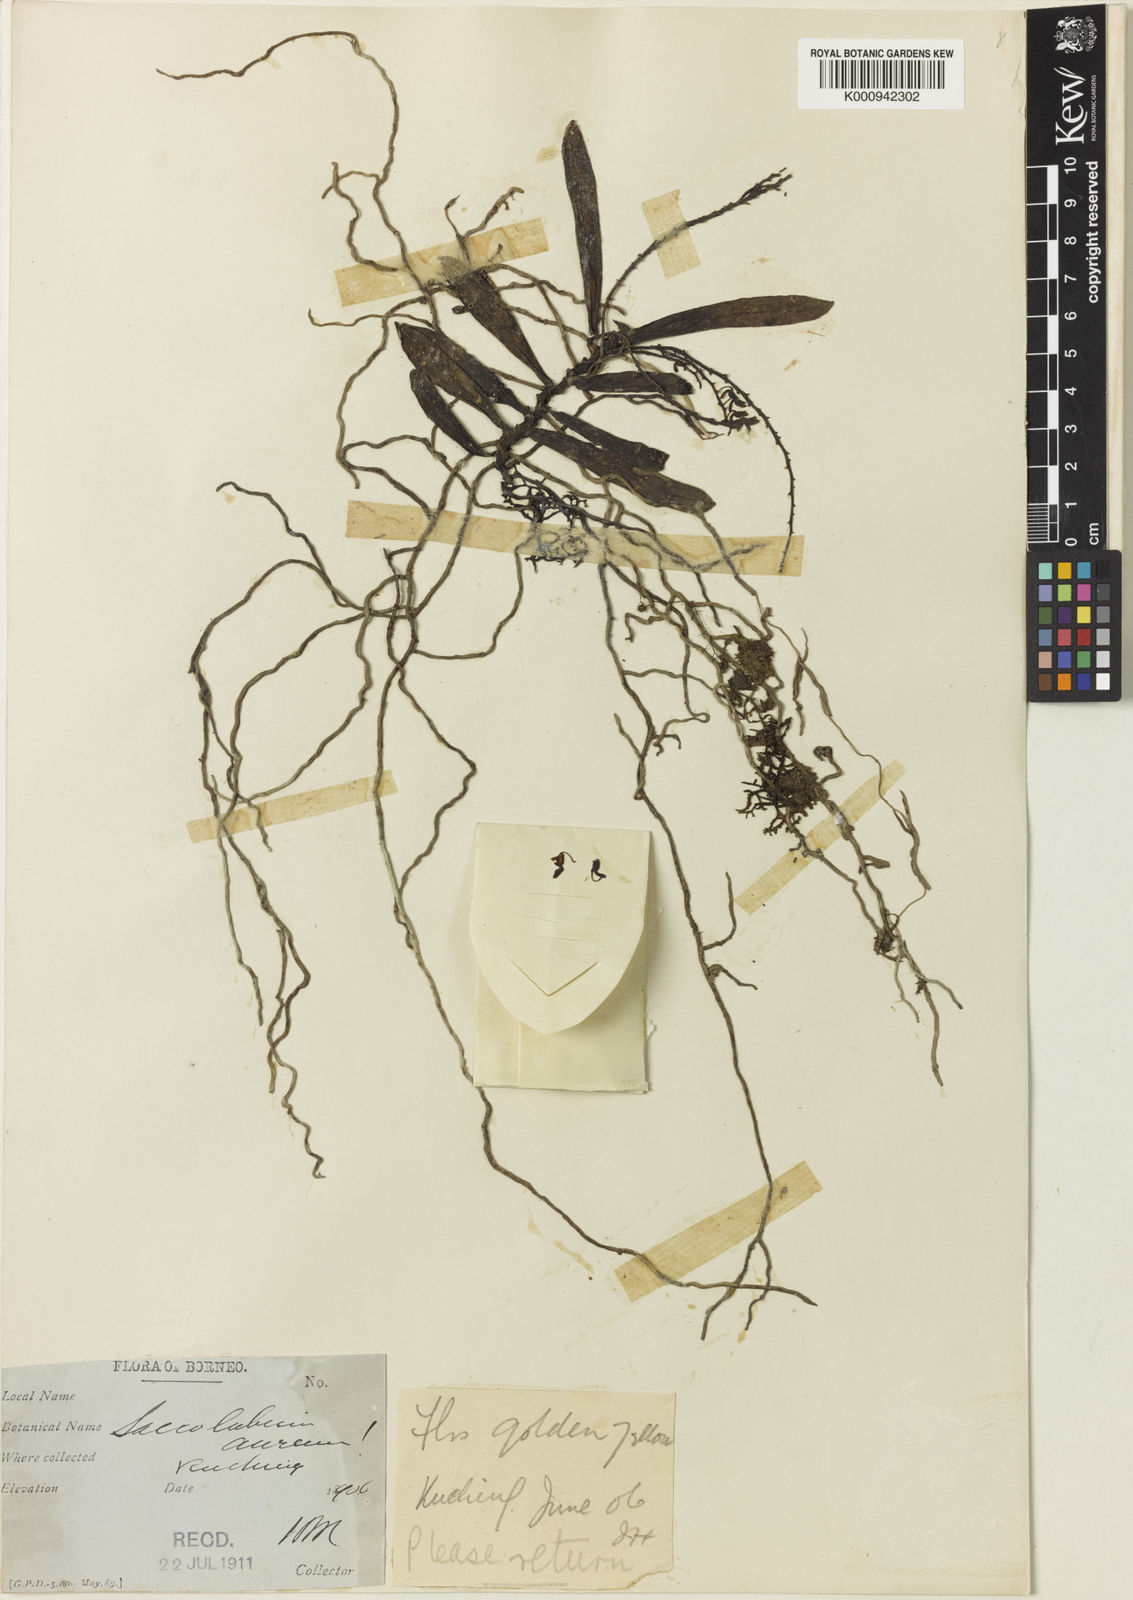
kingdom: Plantae
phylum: Tracheophyta
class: Liliopsida
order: Asparagales
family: Orchidaceae
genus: Schoenorchis
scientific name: Schoenorchis aurea
